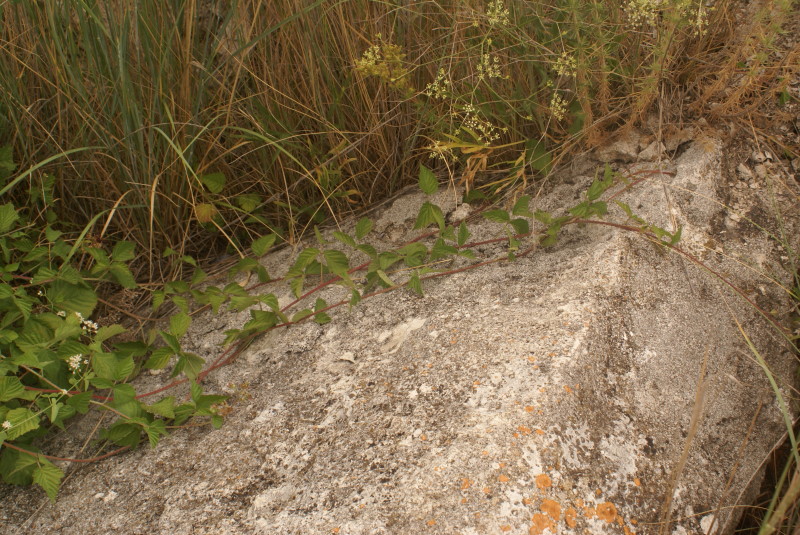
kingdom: Plantae
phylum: Tracheophyta
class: Magnoliopsida
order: Rosales
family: Rosaceae
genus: Rubus
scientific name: Rubus
